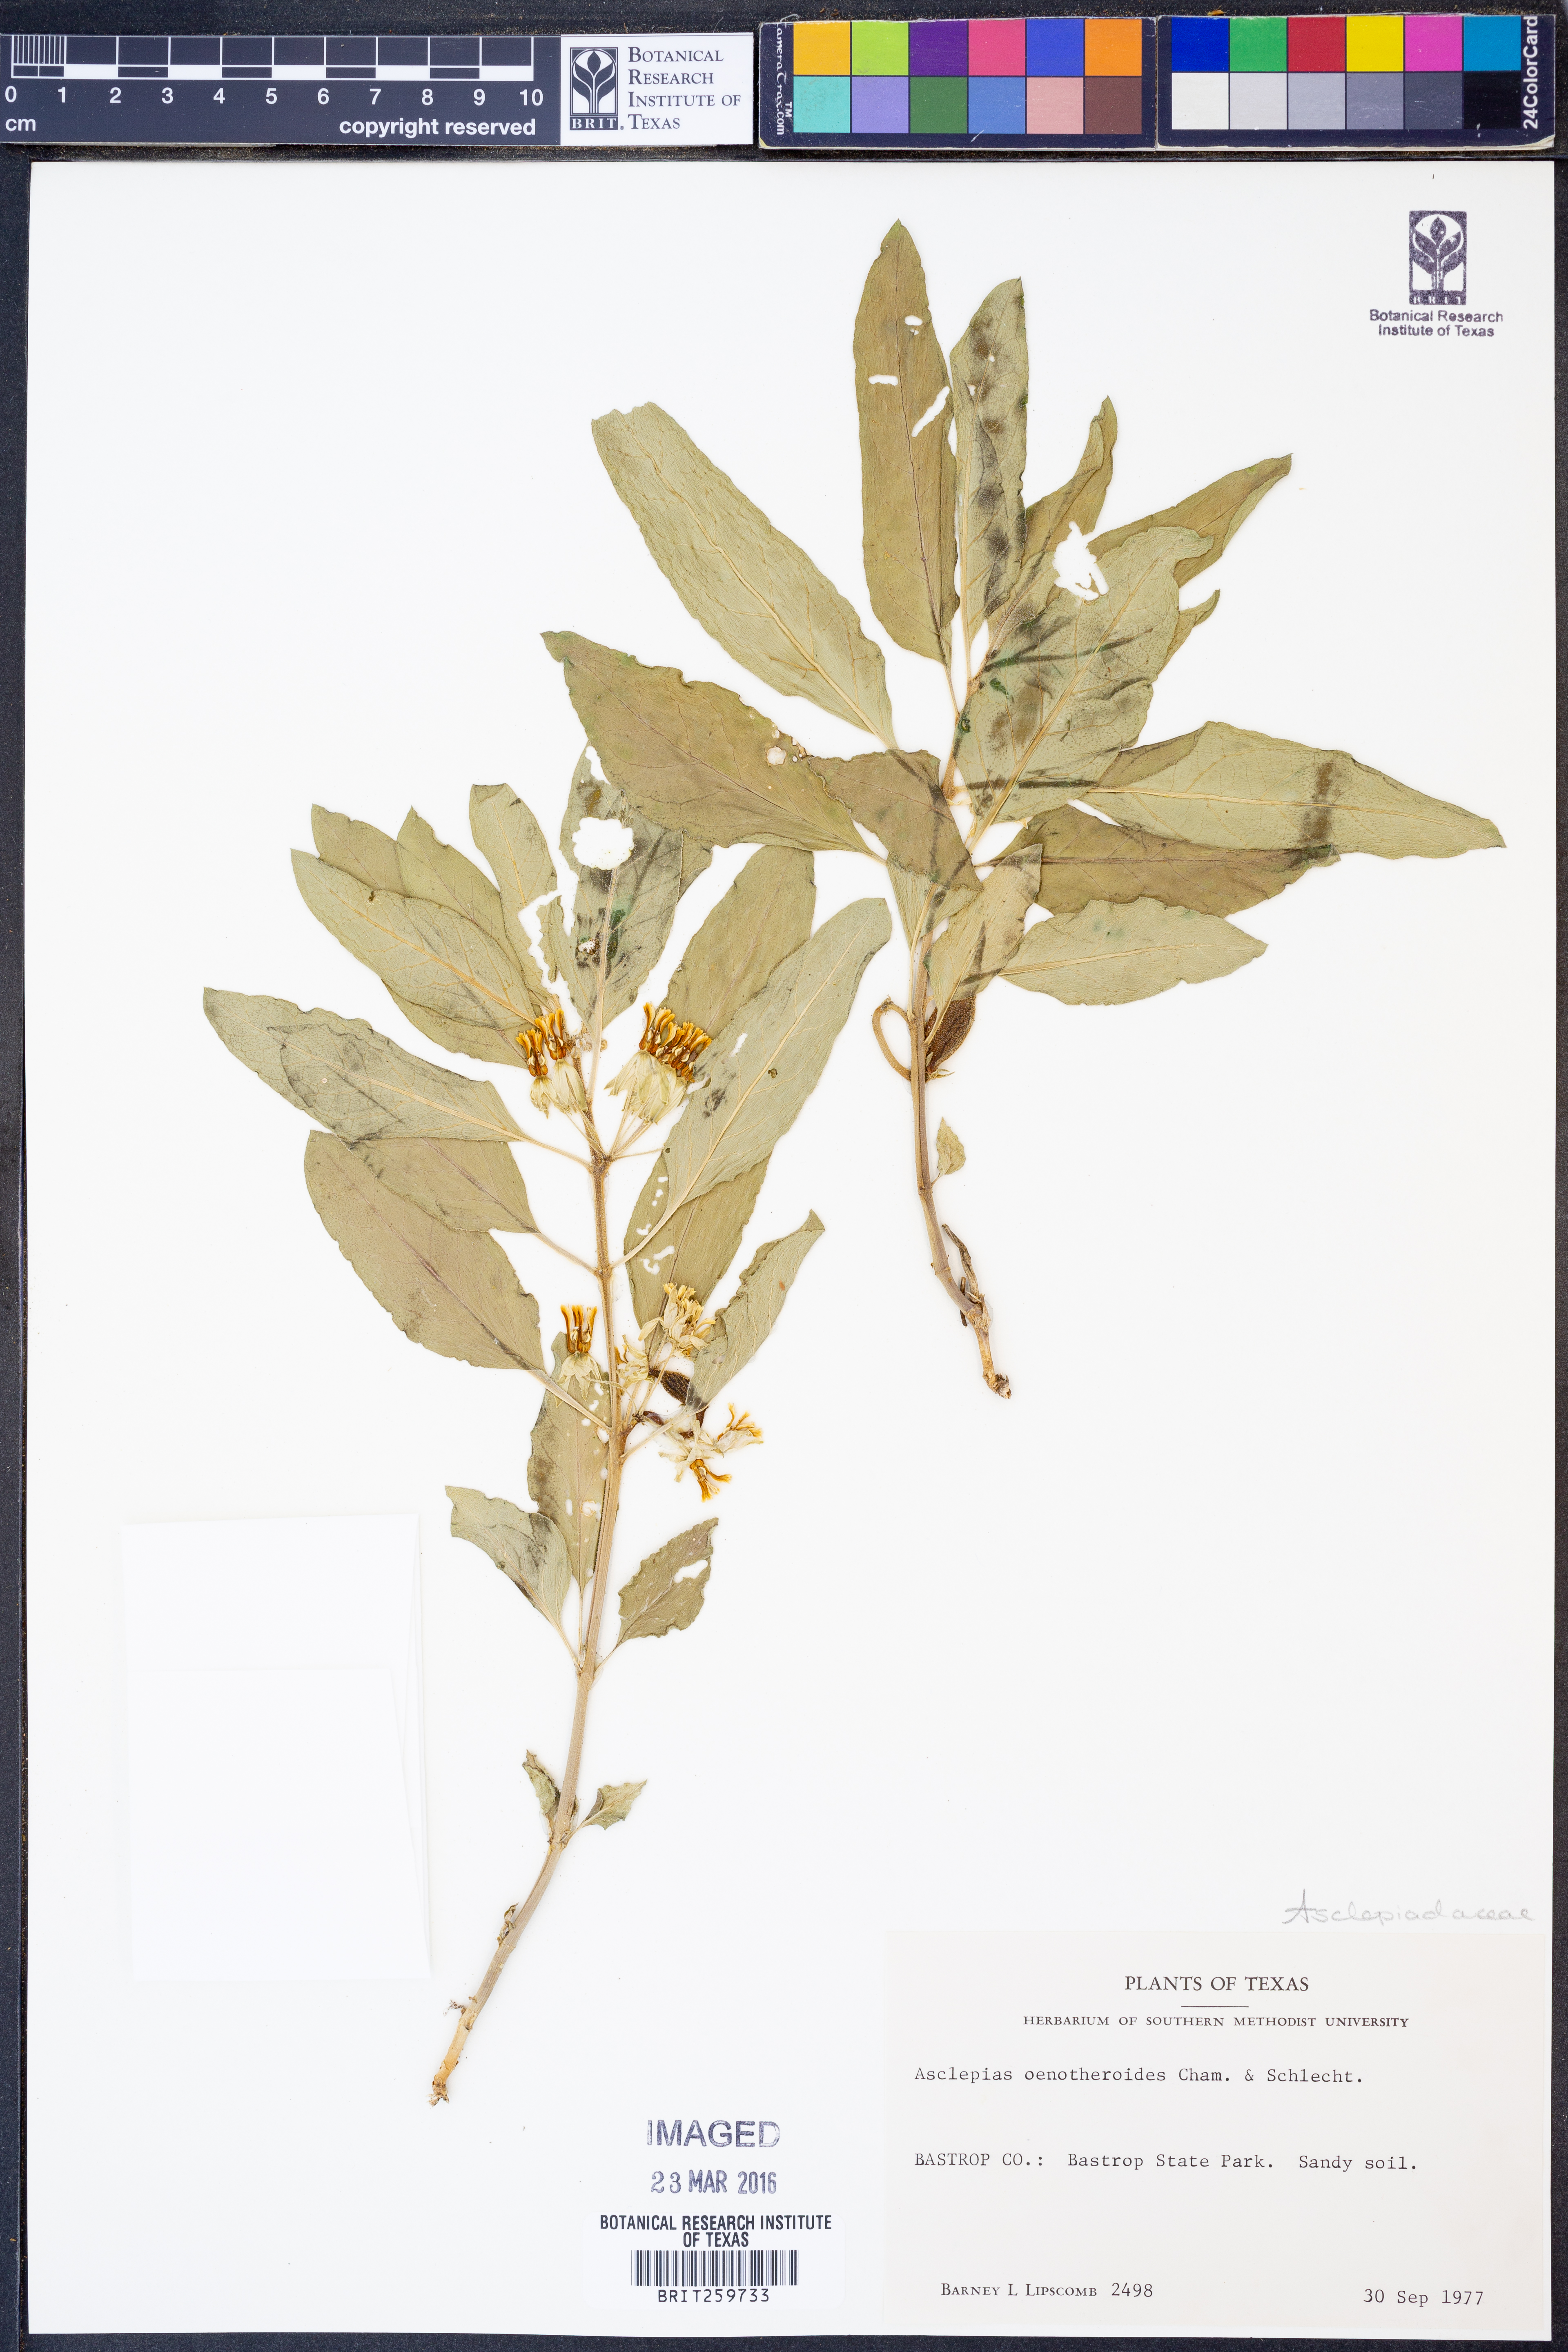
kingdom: Plantae
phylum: Tracheophyta
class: Magnoliopsida
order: Gentianales
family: Apocynaceae
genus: Asclepias
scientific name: Asclepias oenotheroides
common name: Zizotes milkweed
